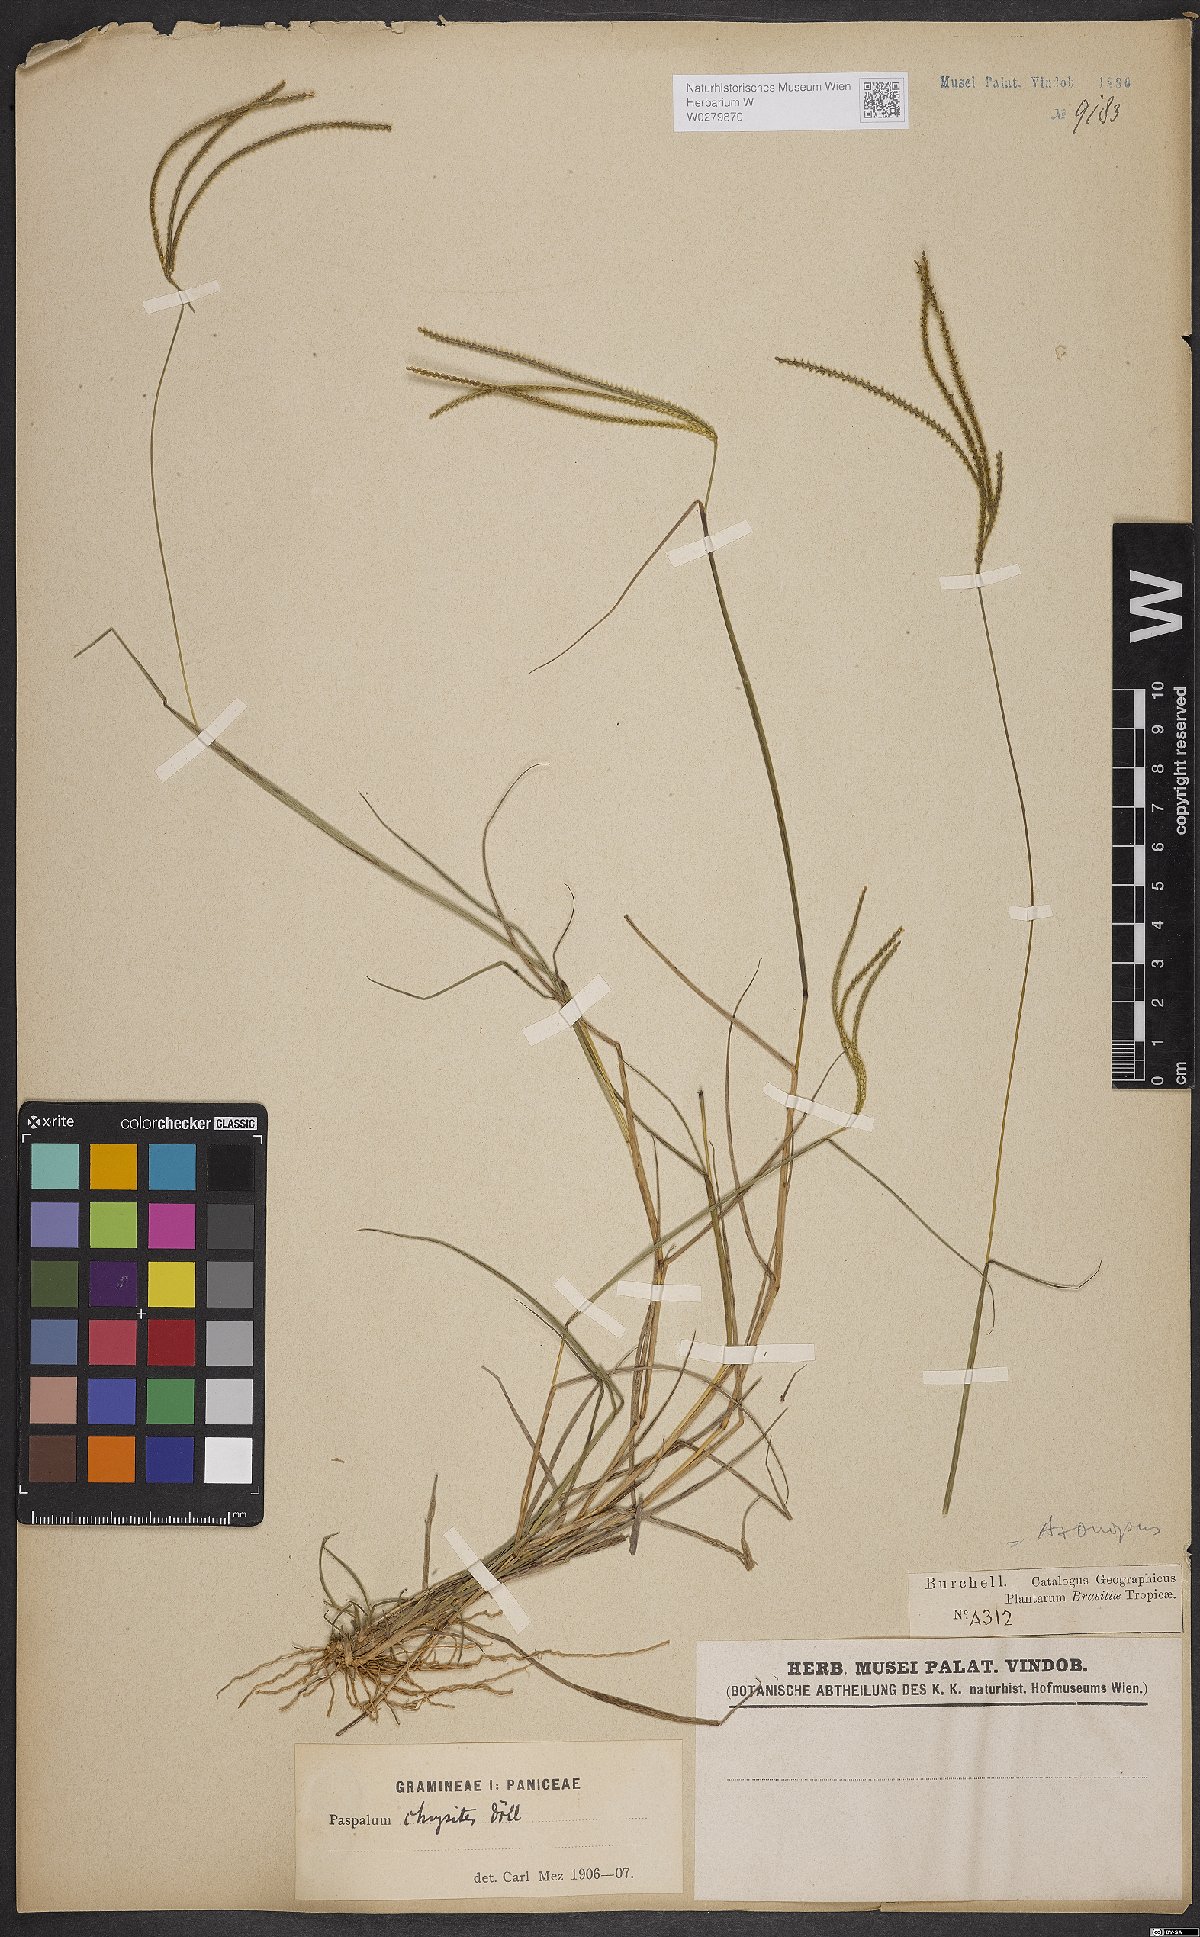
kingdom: Plantae
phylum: Tracheophyta
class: Liliopsida
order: Poales
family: Poaceae
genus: Axonopus
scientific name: Axonopus aureus
